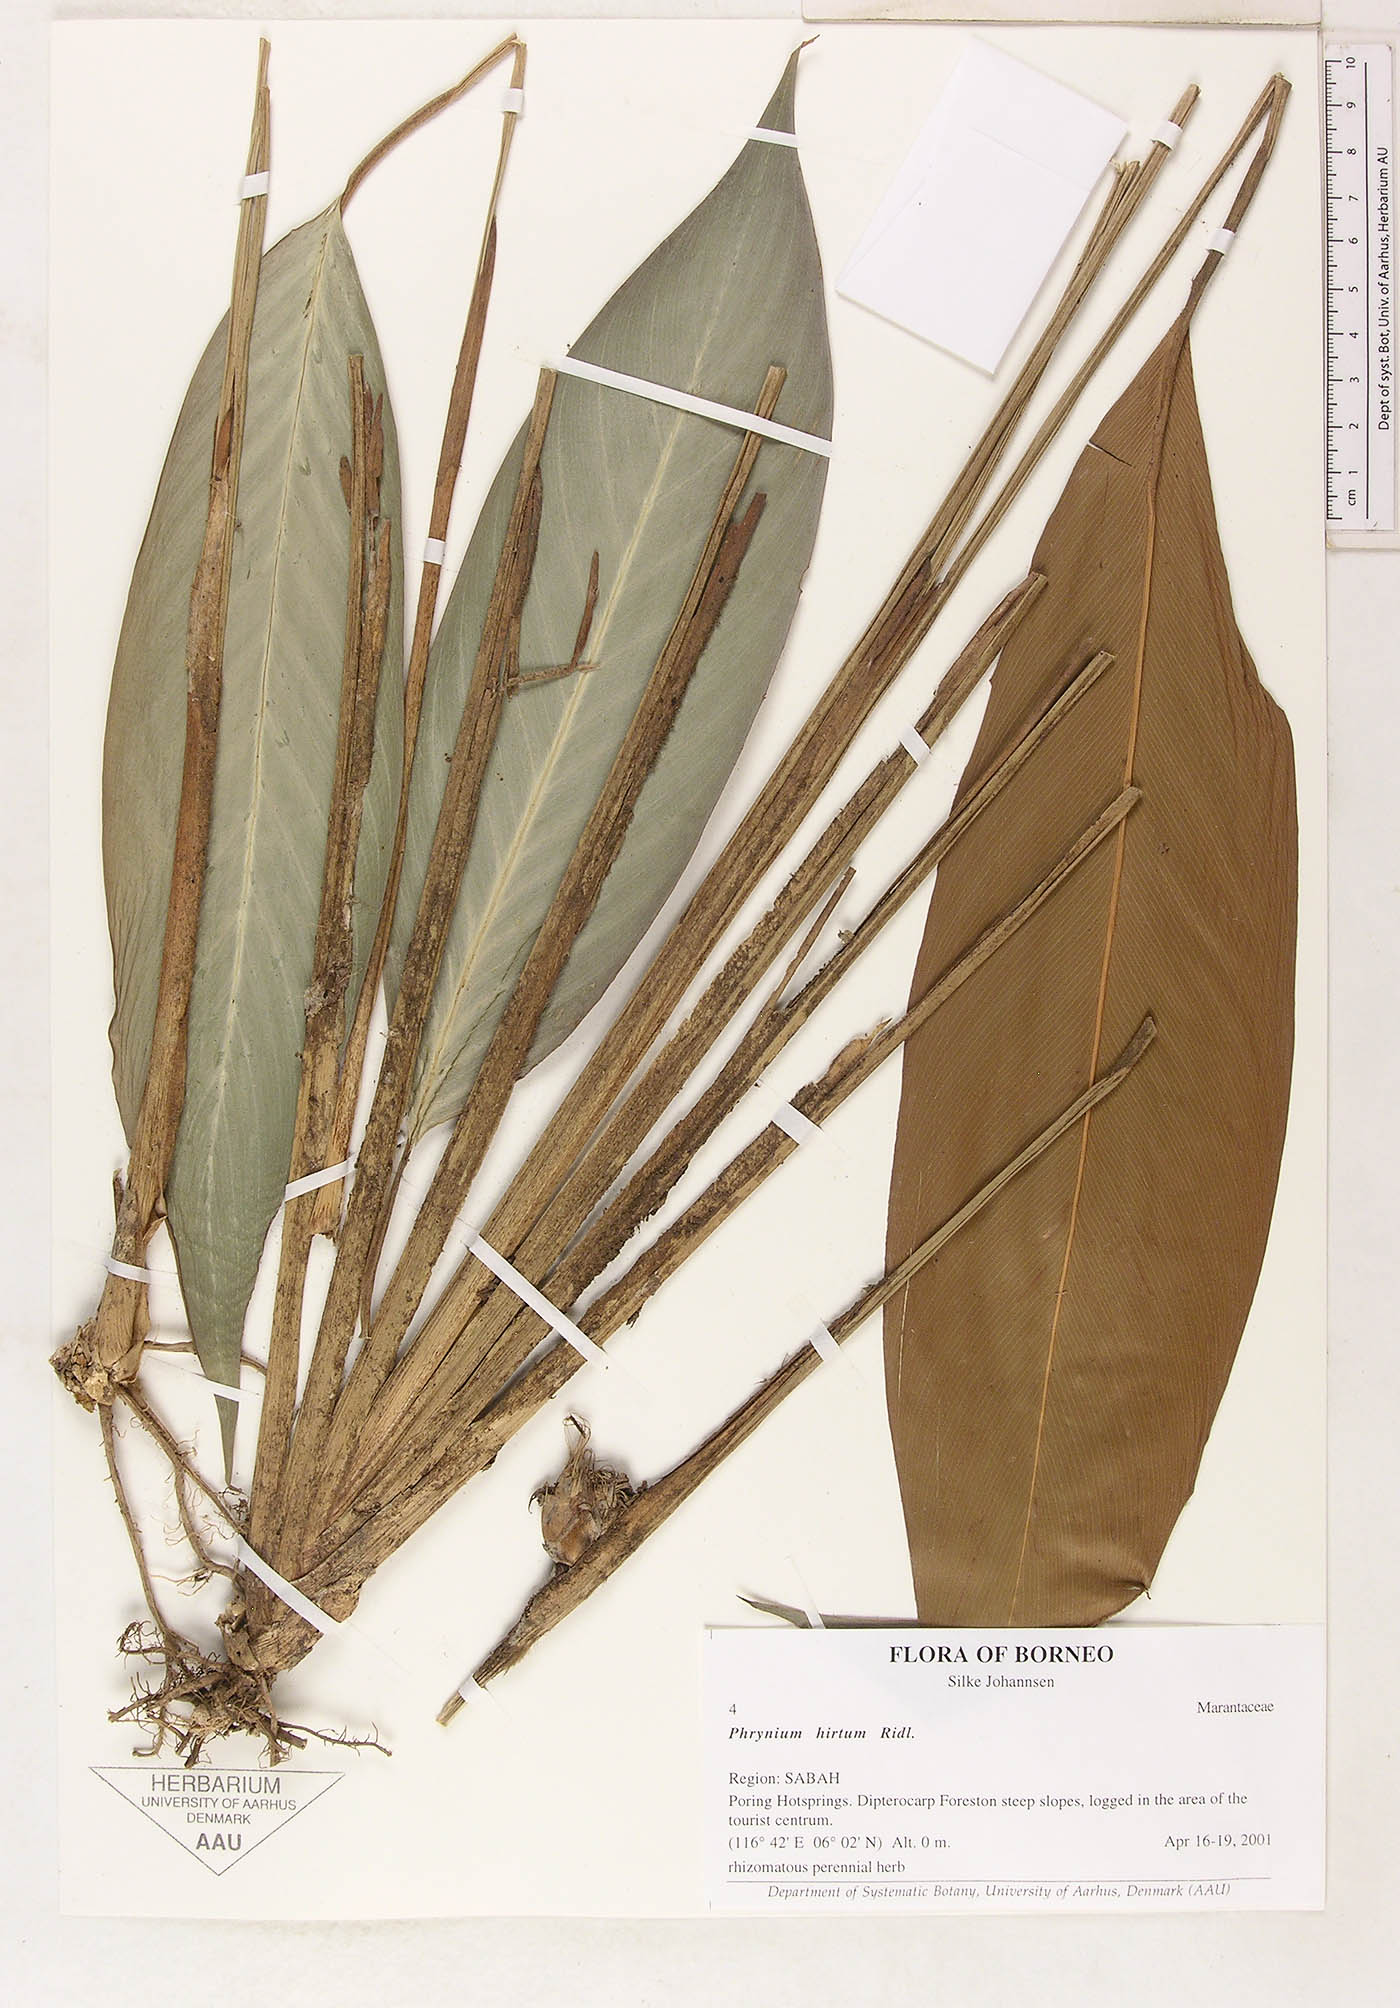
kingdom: Plantae
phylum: Tracheophyta
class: Liliopsida
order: Zingiberales
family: Marantaceae
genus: Phrynium
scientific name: Phrynium hirtum
